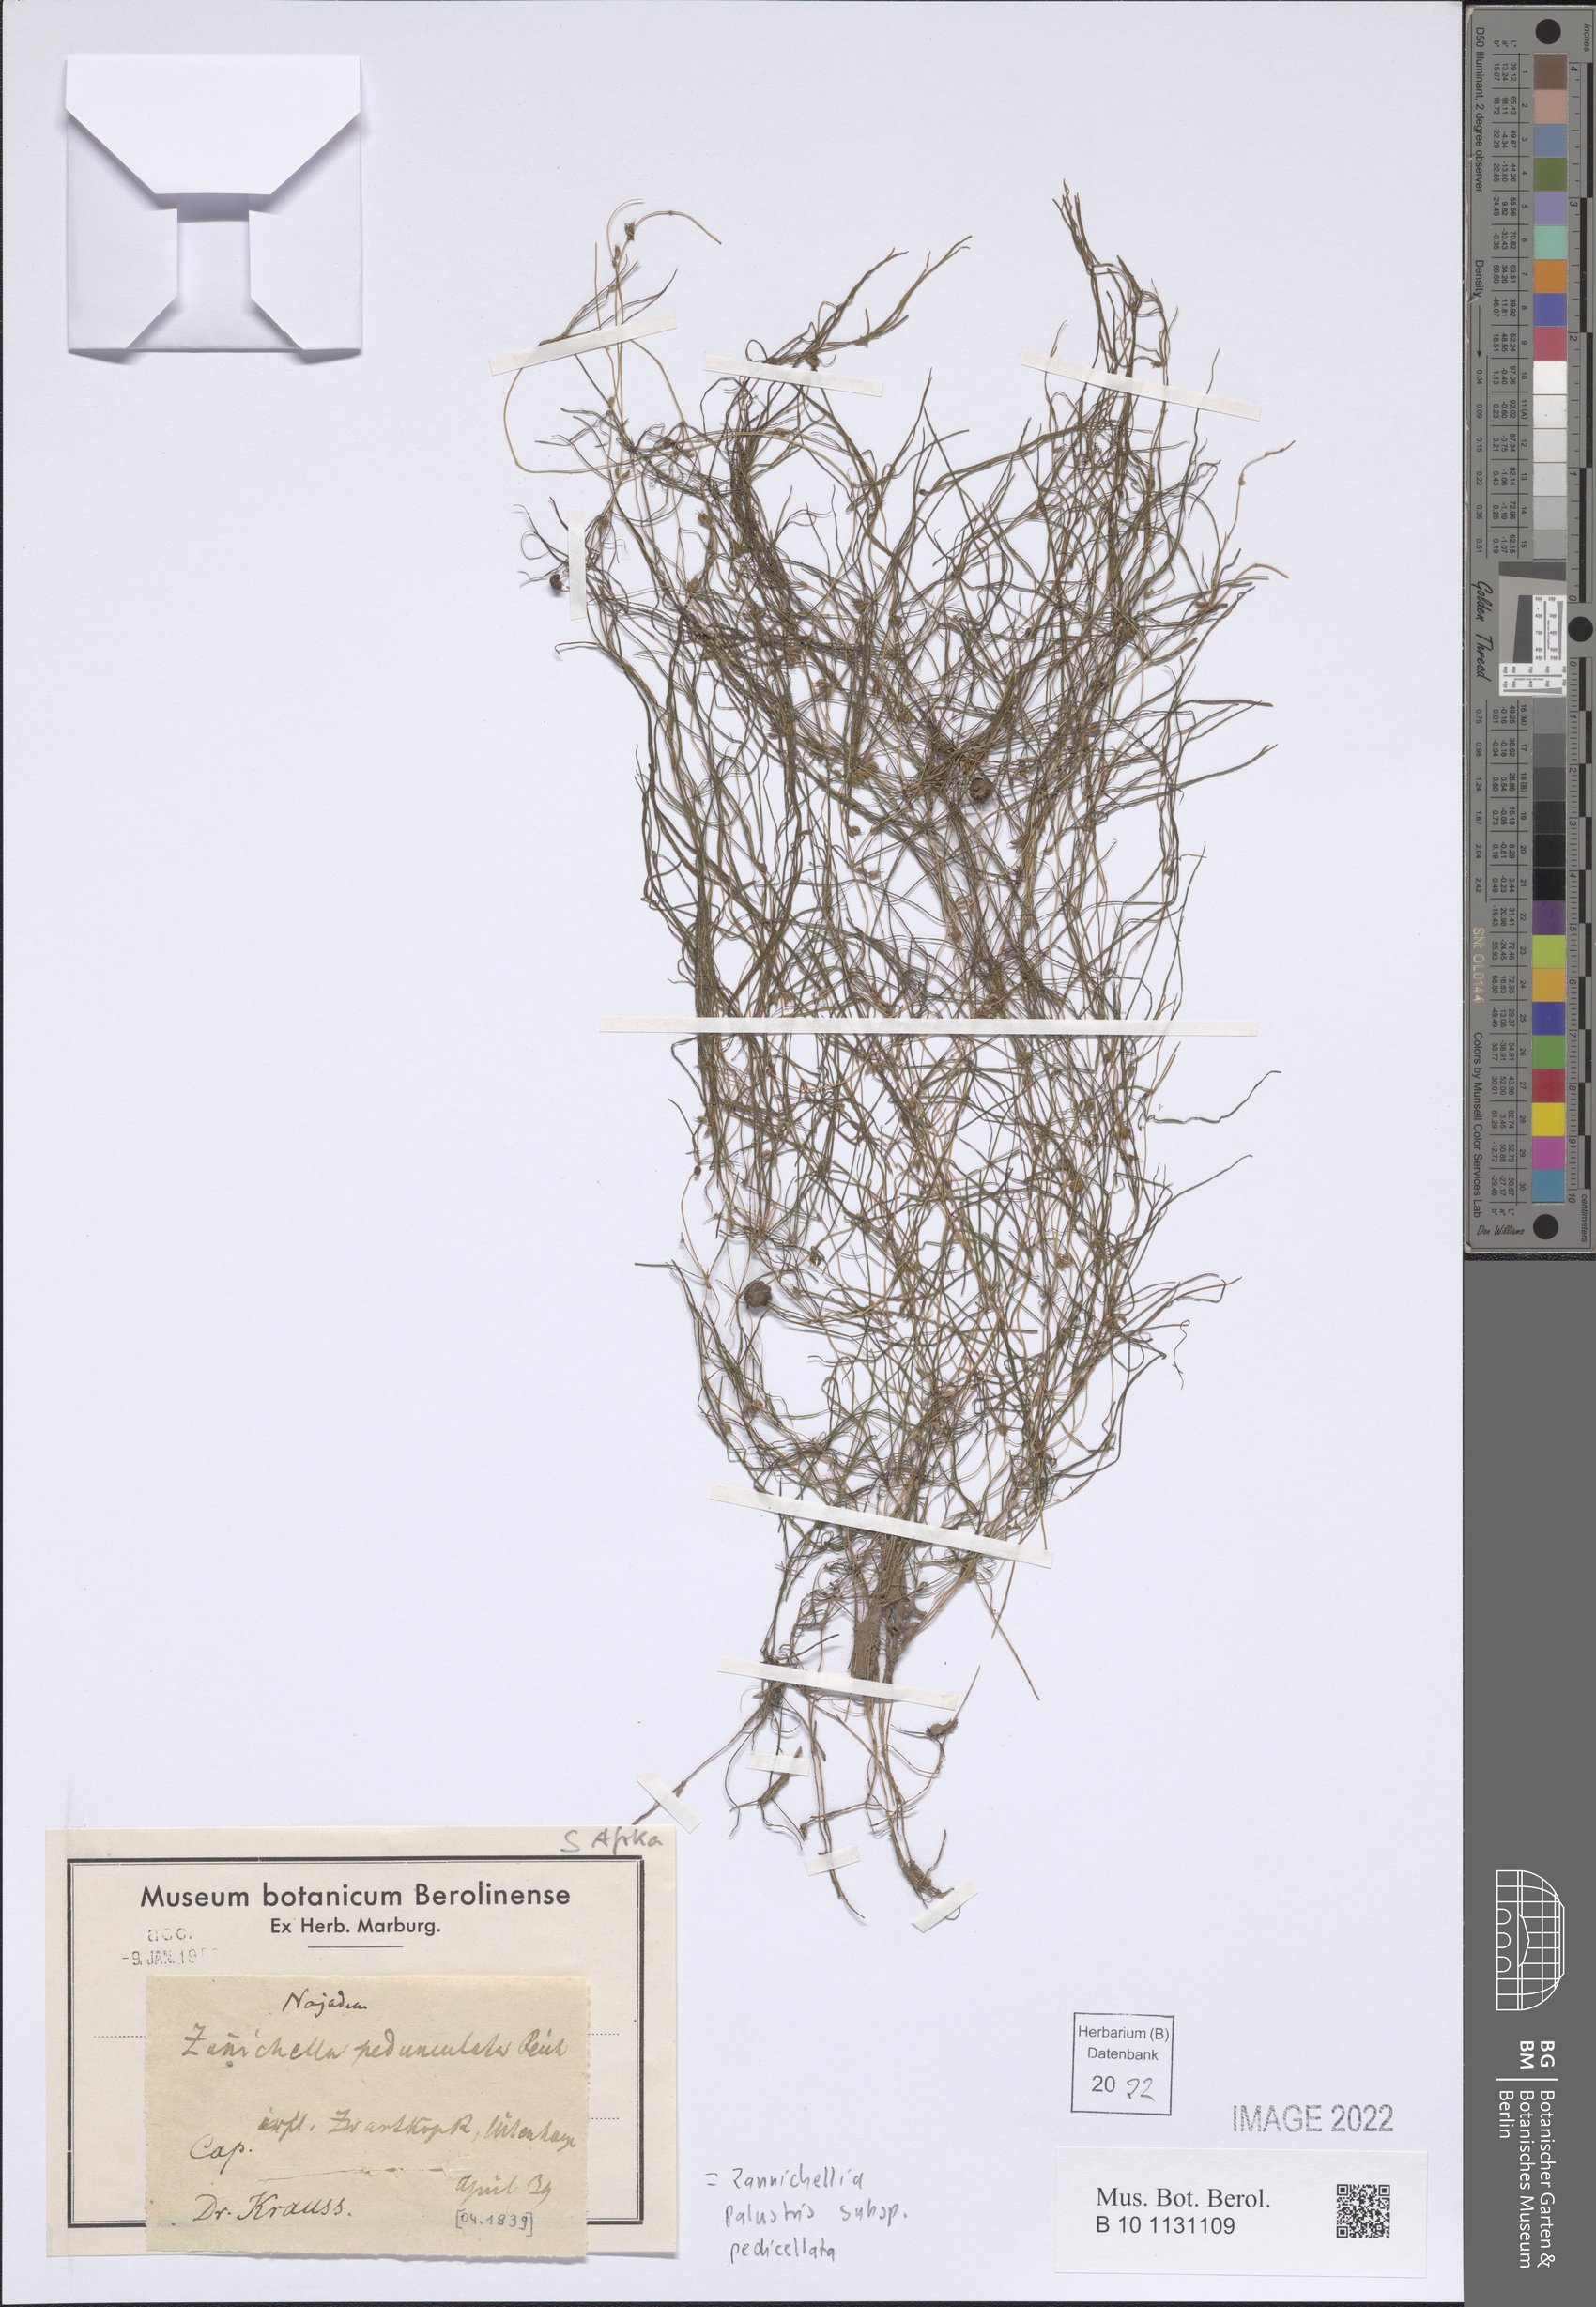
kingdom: Plantae
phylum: Tracheophyta
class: Liliopsida
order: Alismatales
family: Potamogetonaceae
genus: Zannichellia
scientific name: Zannichellia palustris
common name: Horned pondweed
